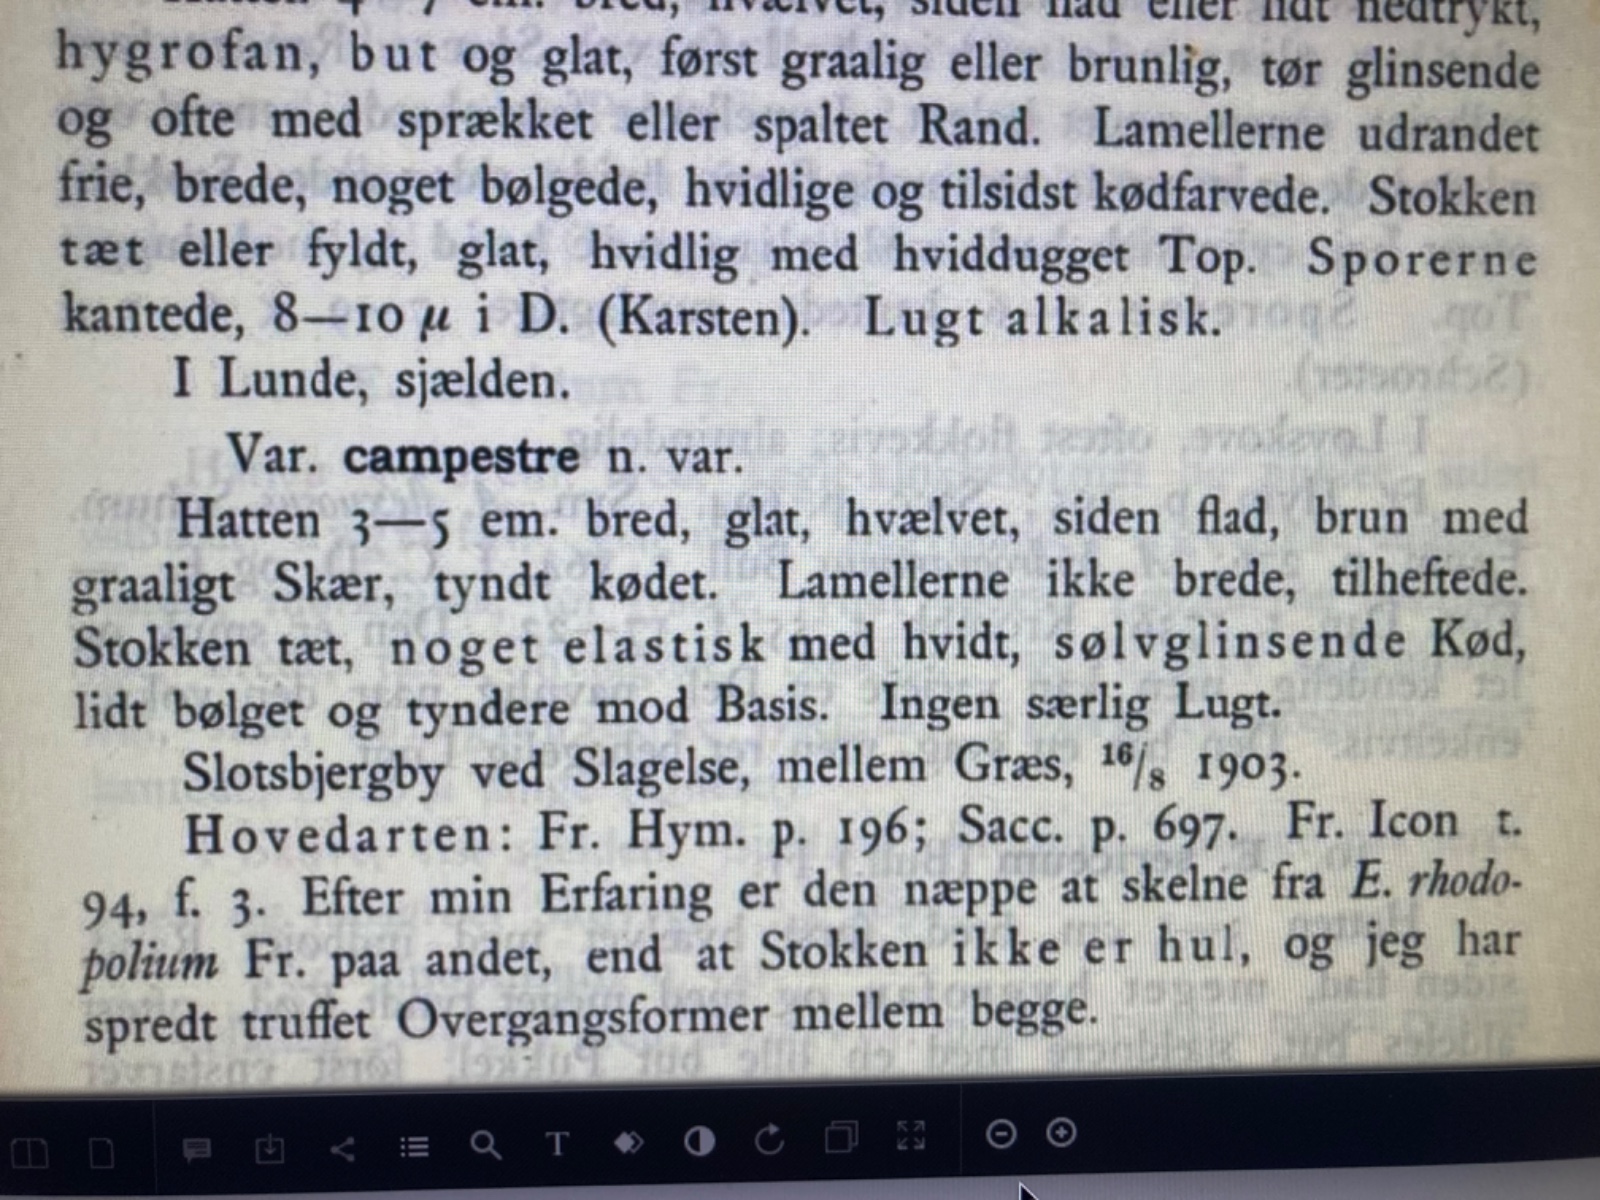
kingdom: Fungi
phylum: Basidiomycota
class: Agaricomycetes
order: Agaricales
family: Entolomataceae
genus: Entoloma
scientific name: Entoloma
